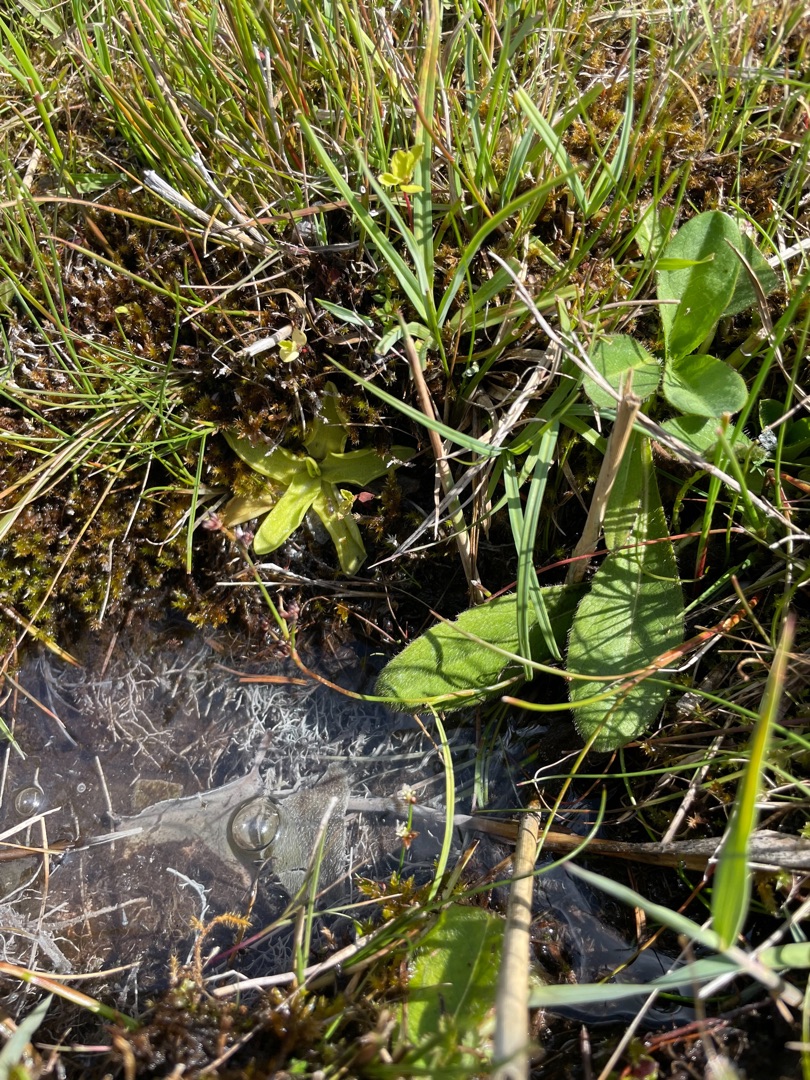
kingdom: Plantae
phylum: Tracheophyta
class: Magnoliopsida
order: Lamiales
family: Lentibulariaceae
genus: Pinguicula
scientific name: Pinguicula vulgaris
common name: Vibefedt
